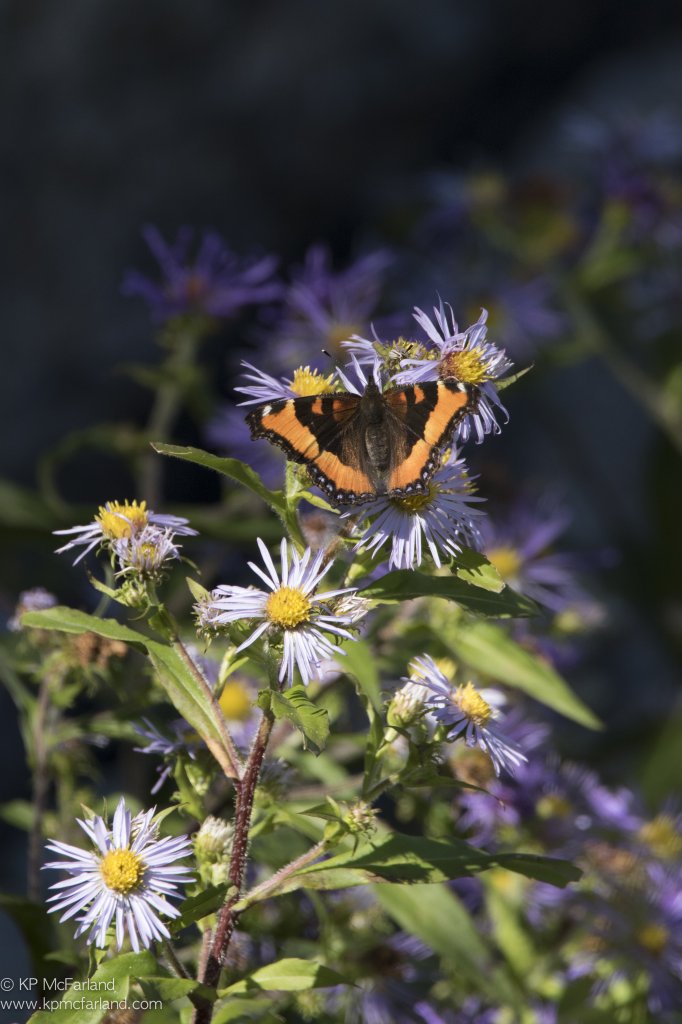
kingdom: Animalia
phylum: Arthropoda
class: Insecta
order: Lepidoptera
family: Nymphalidae
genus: Aglais
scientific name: Aglais milberti
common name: Milbert's Tortoiseshell
